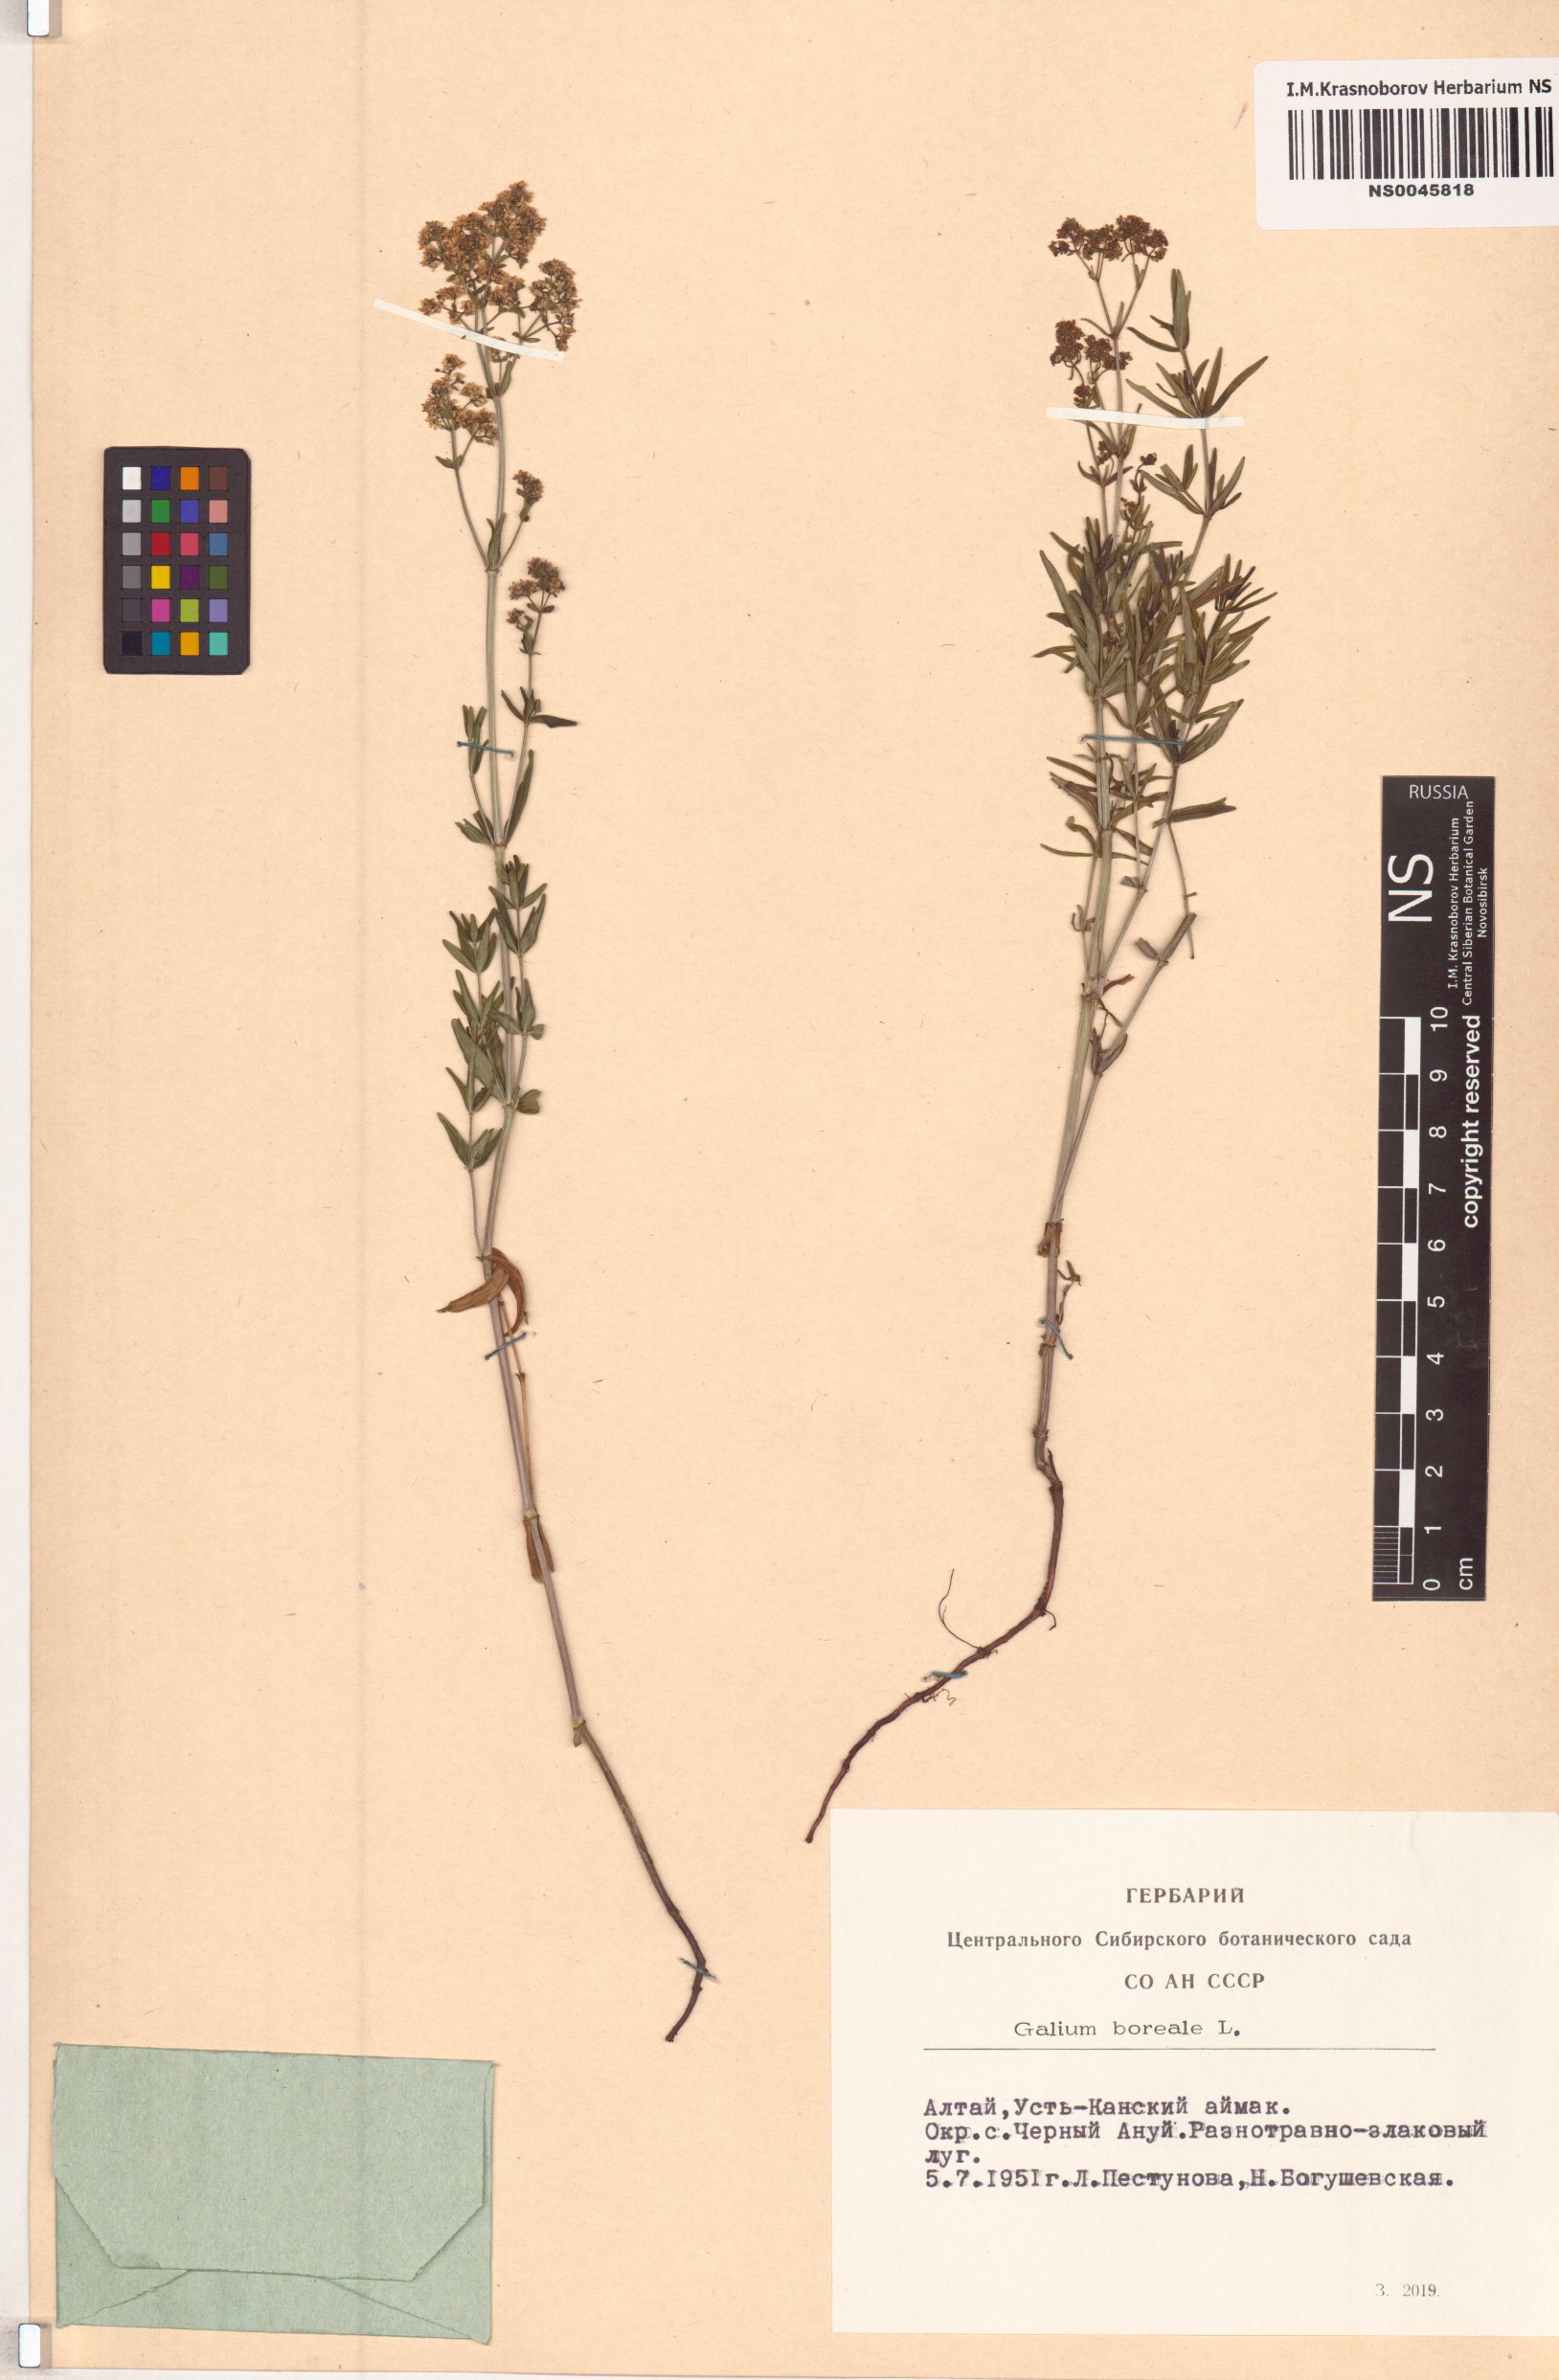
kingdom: Plantae
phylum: Tracheophyta
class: Magnoliopsida
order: Gentianales
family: Rubiaceae
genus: Galium
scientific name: Galium boreale
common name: Northern bedstraw
